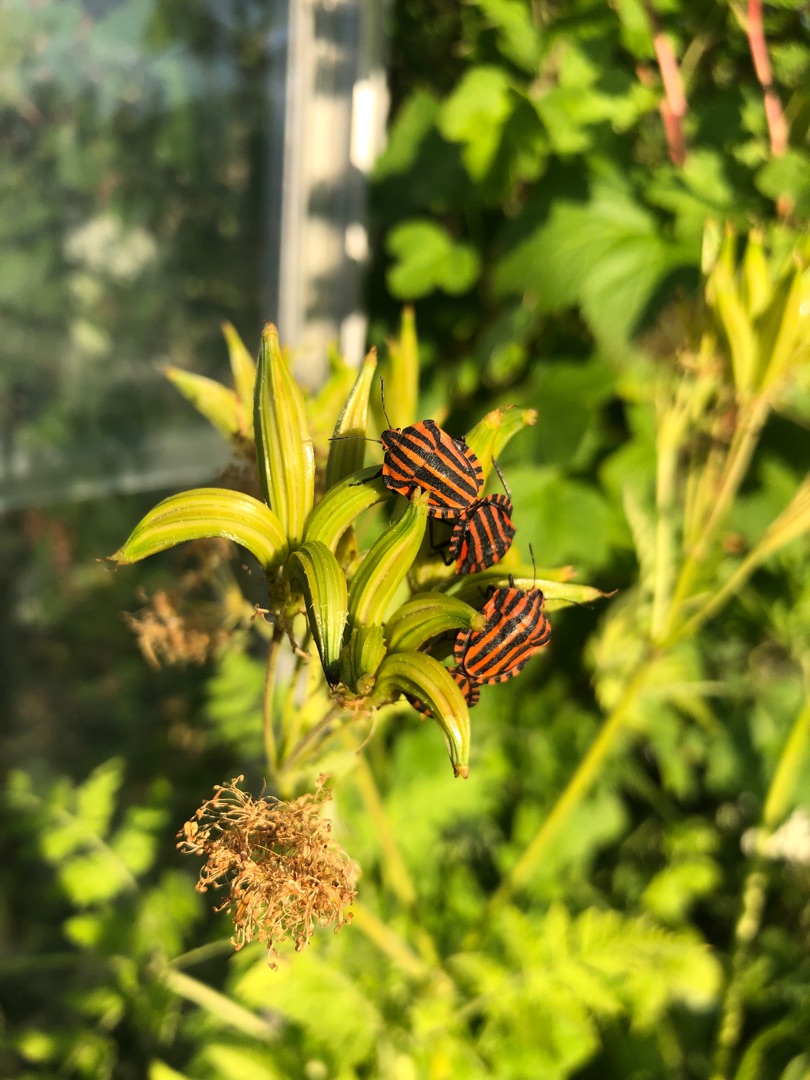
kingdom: Animalia
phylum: Arthropoda
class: Insecta
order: Hemiptera
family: Pentatomidae
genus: Graphosoma
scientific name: Graphosoma italicum
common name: Stribetæge
